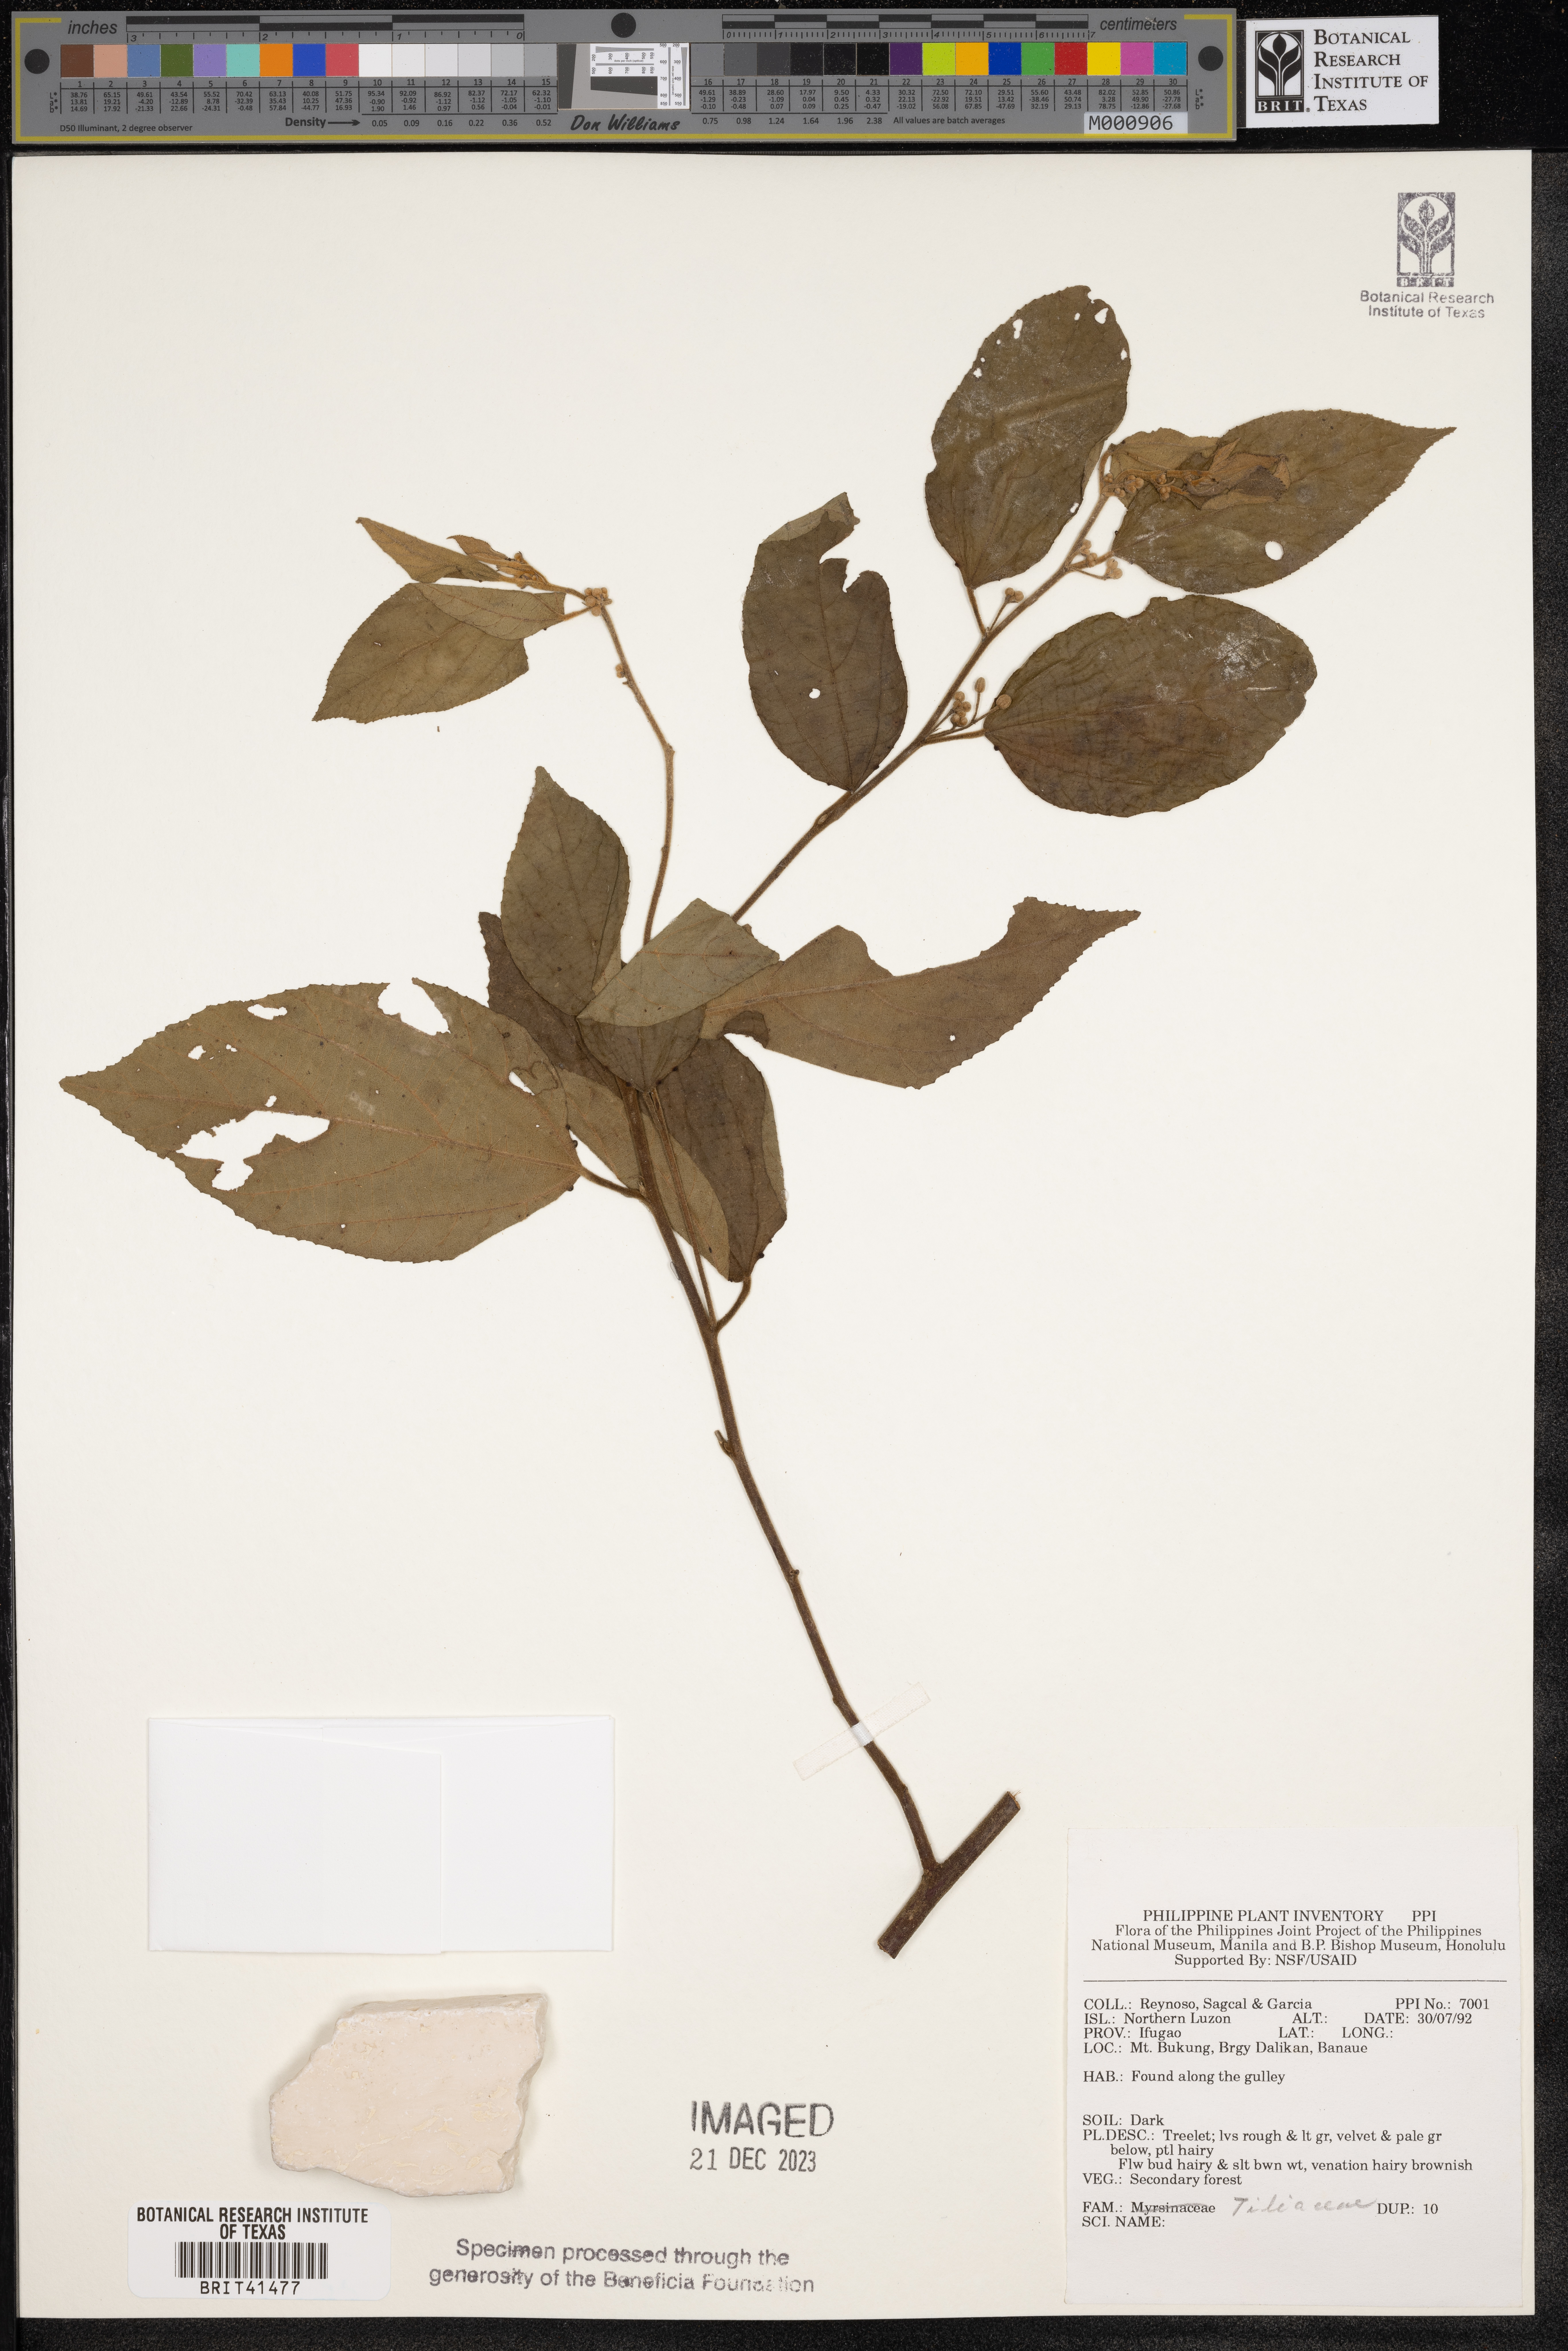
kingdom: Plantae
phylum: Tracheophyta
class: Magnoliopsida
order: Malvales
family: Tiliaceae
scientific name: Tiliaceae
